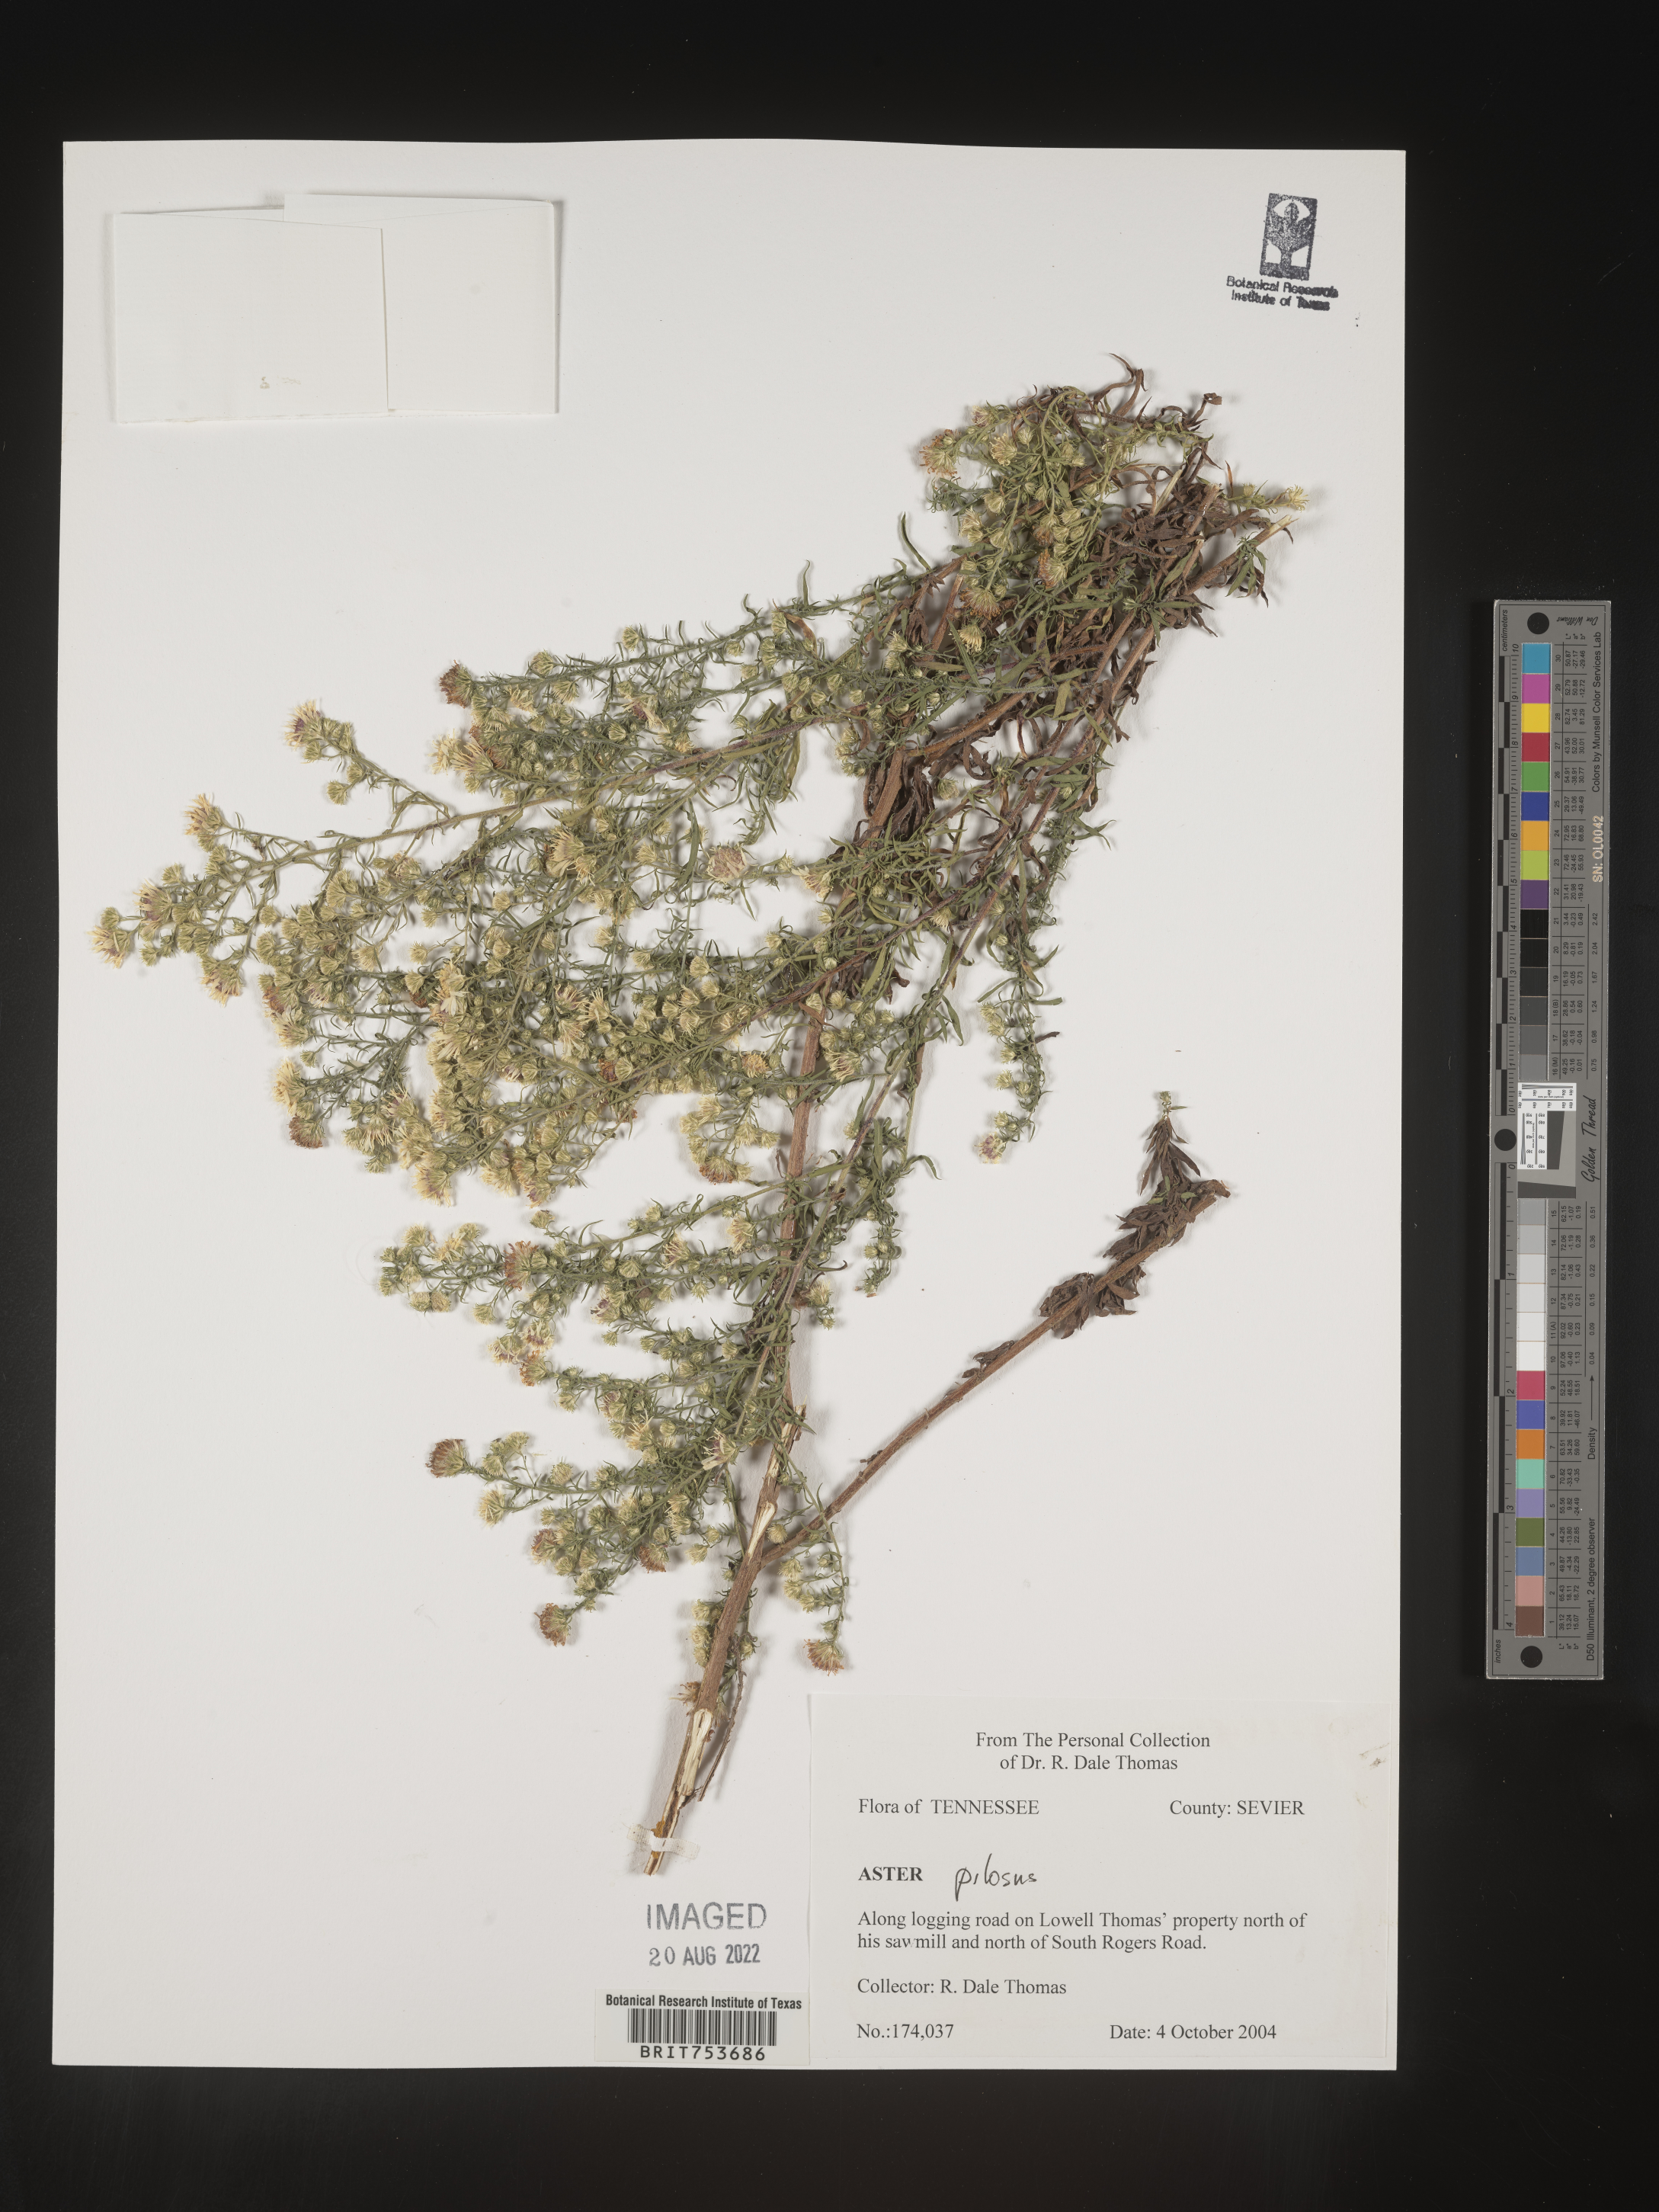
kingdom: Plantae
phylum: Tracheophyta
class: Magnoliopsida
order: Asterales
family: Asteraceae
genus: Symphyotrichum
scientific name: Symphyotrichum pilosum
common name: Awl aster
